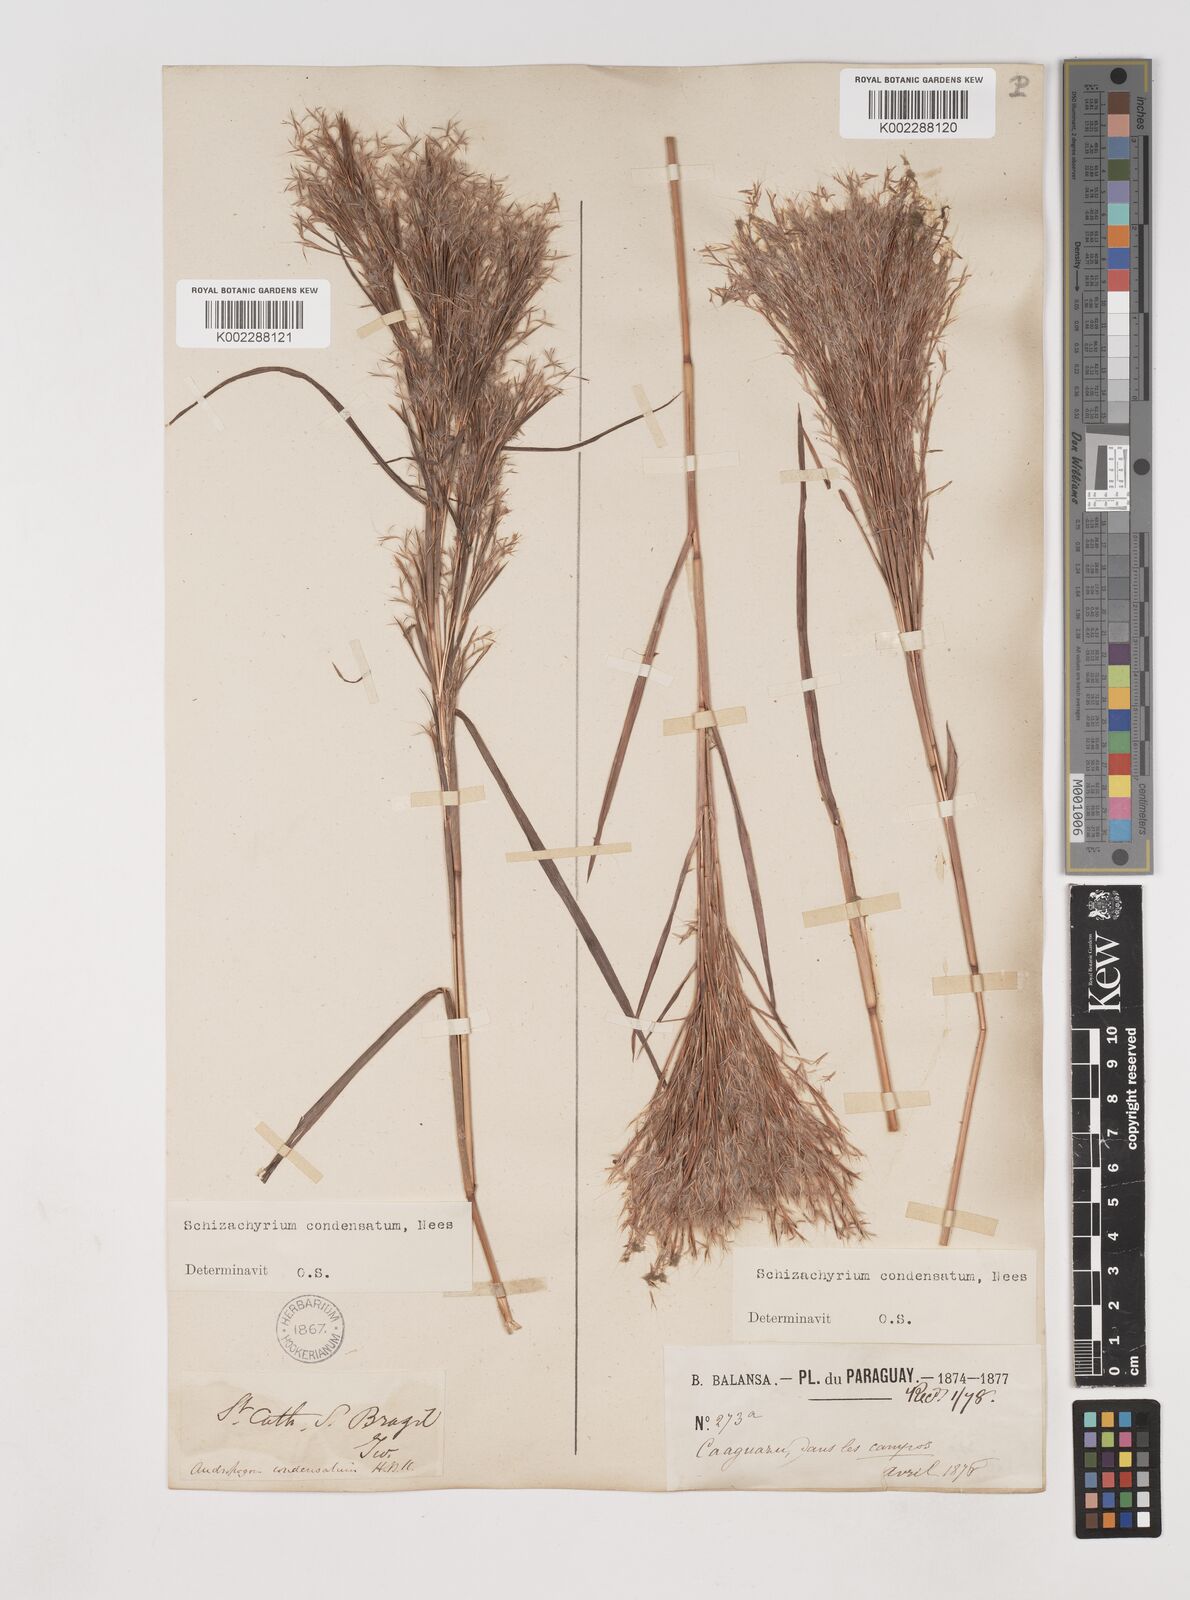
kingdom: Plantae
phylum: Tracheophyta
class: Liliopsida
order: Poales
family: Poaceae
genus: Schizachyrium
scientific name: Schizachyrium condensatum
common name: Bush beardgrass
